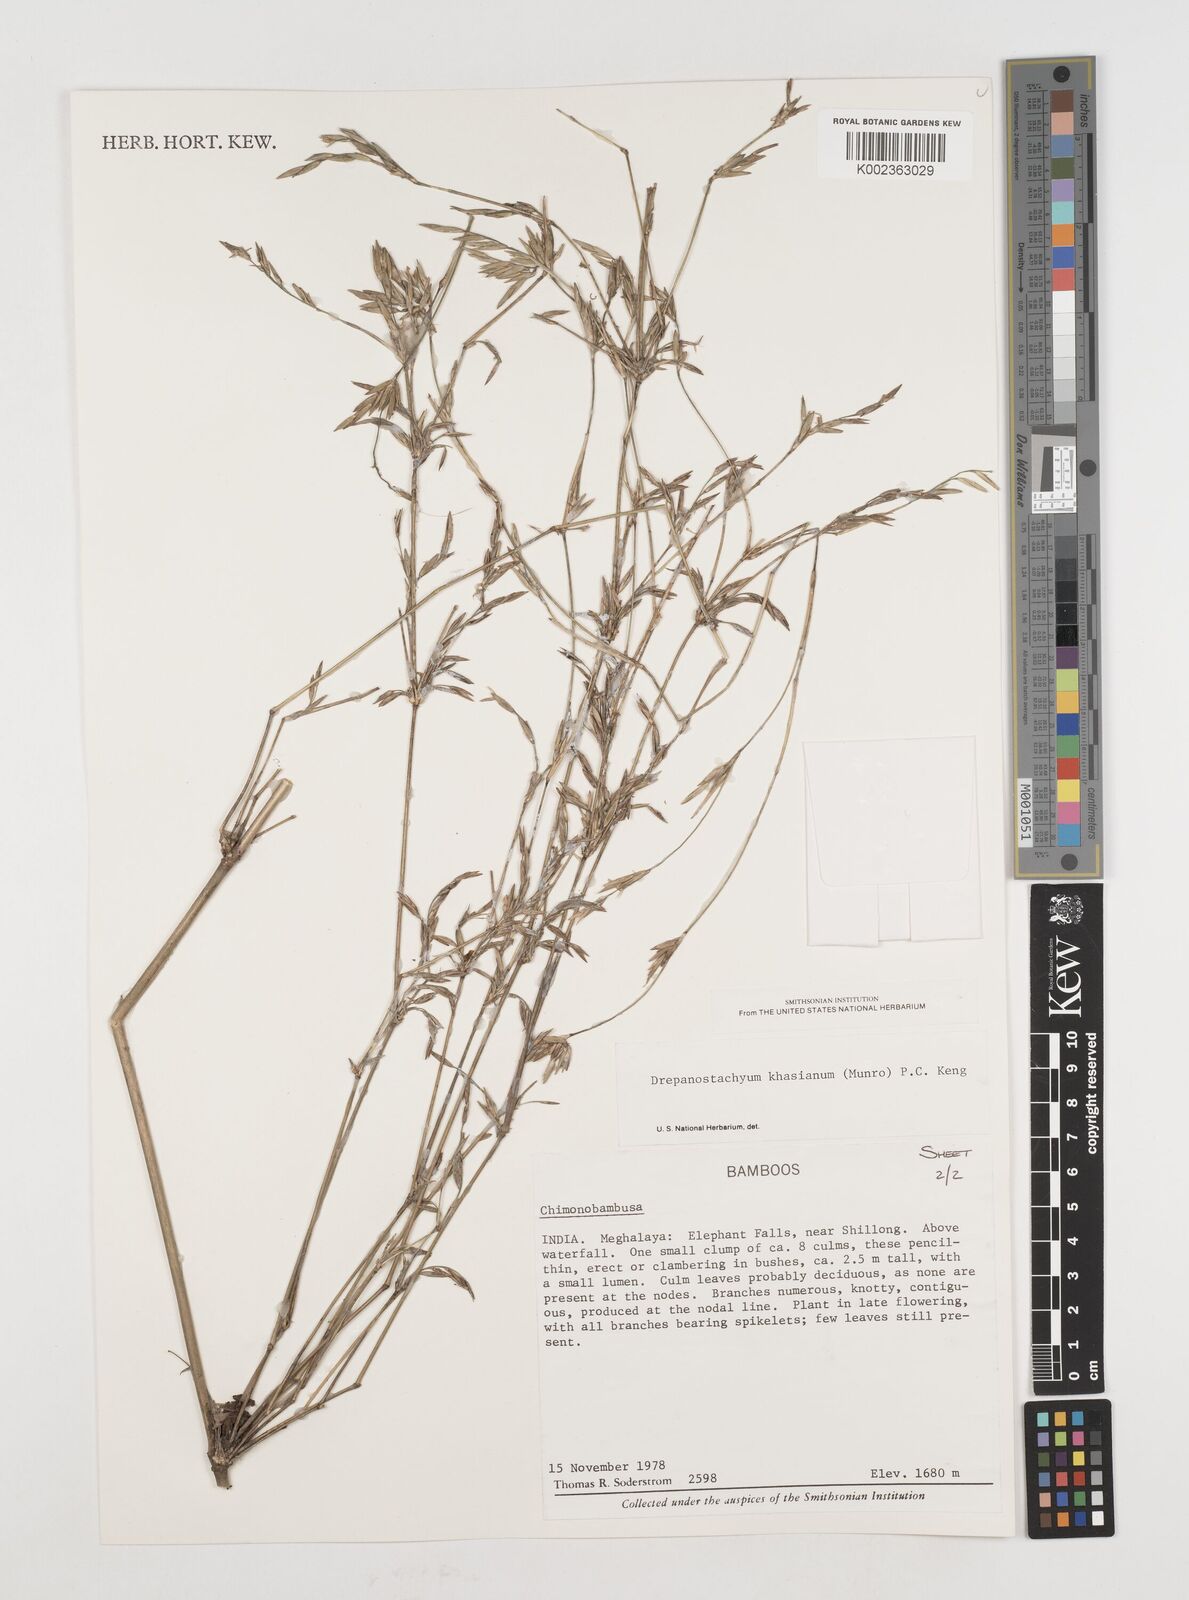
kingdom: Plantae
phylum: Tracheophyta
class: Liliopsida
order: Poales
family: Poaceae
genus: Drepanostachyum
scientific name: Drepanostachyum khasianum
